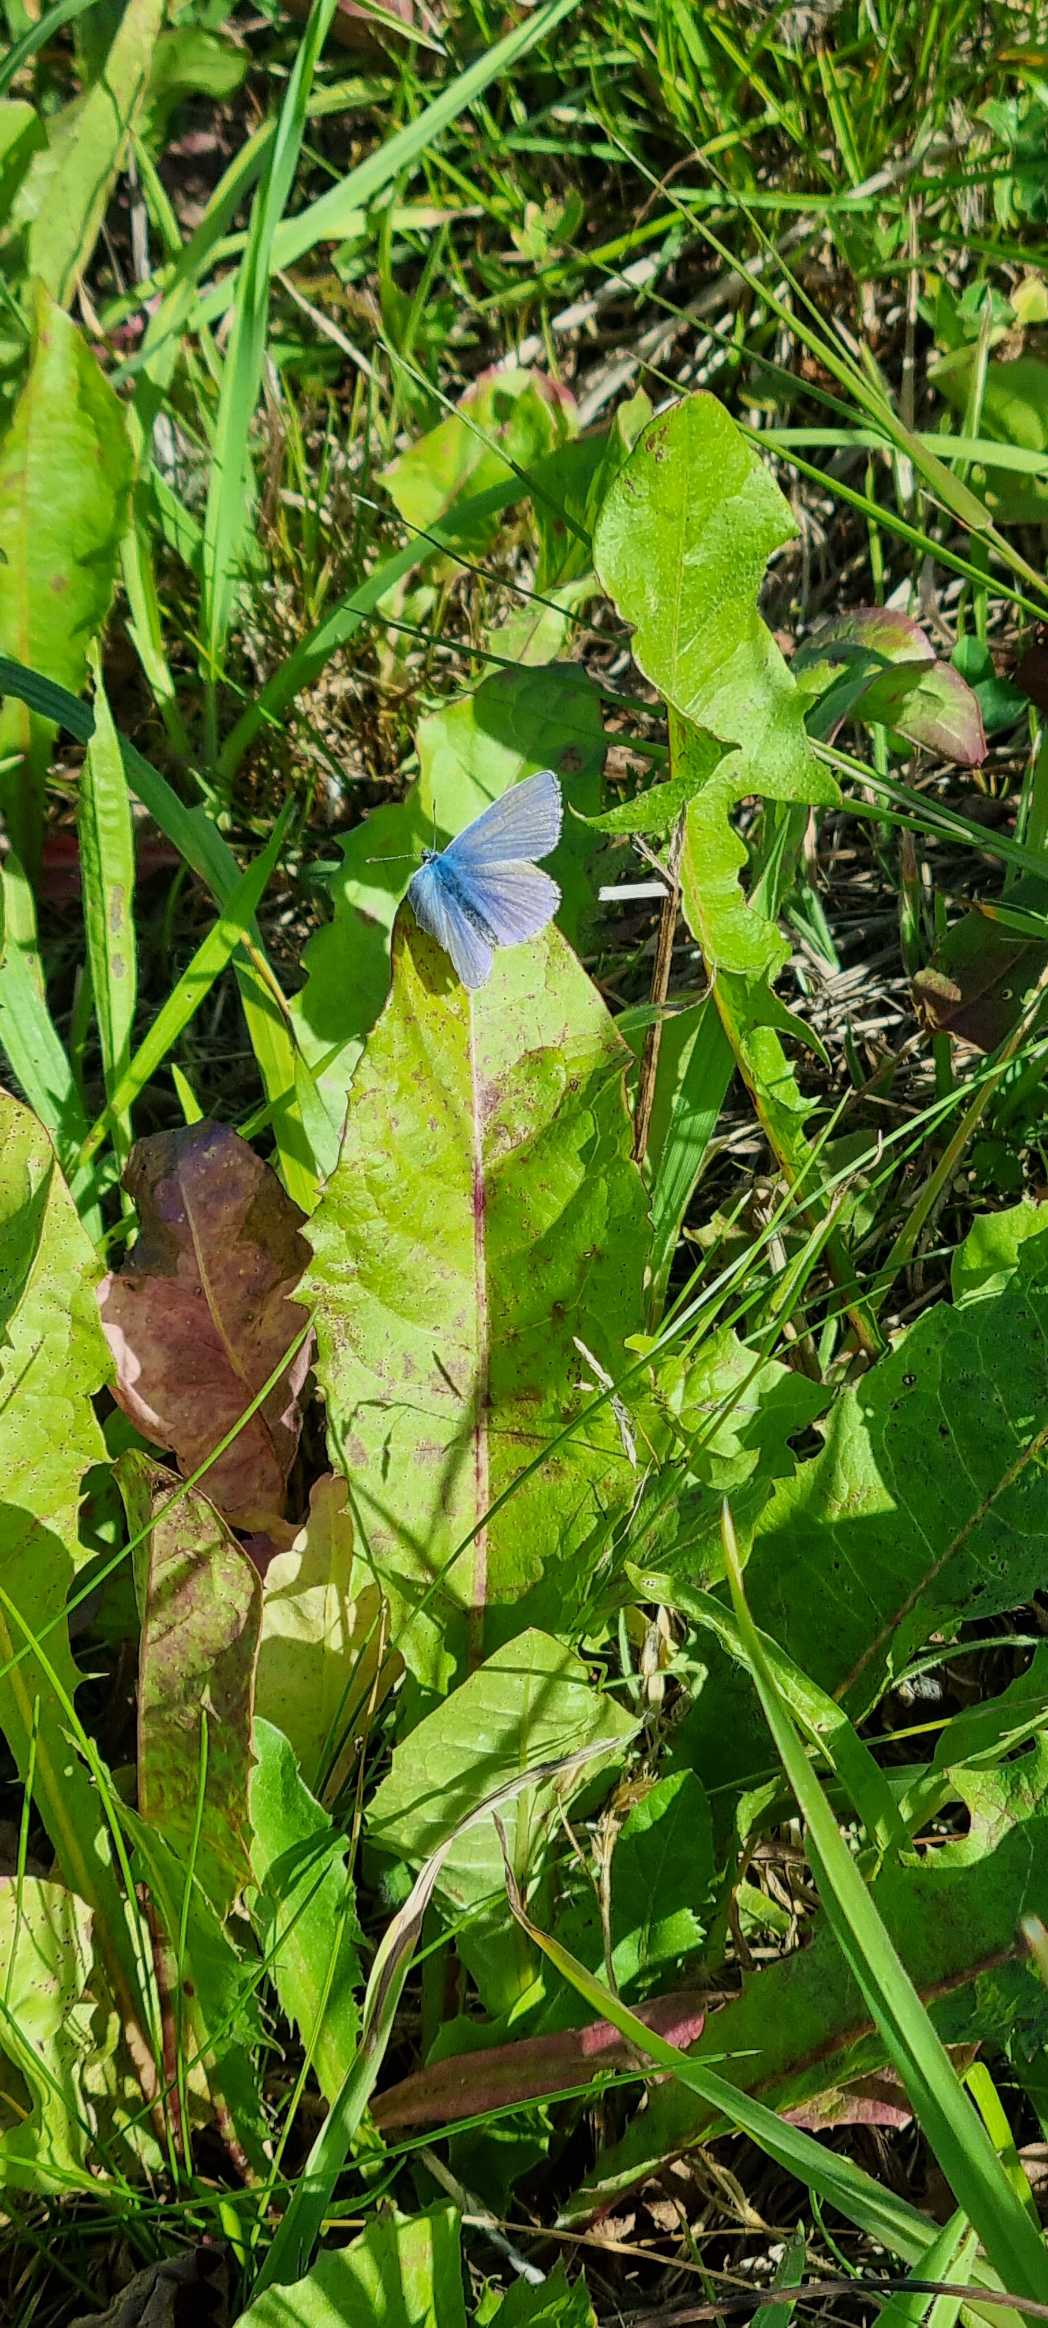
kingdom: Animalia
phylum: Arthropoda
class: Insecta
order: Lepidoptera
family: Lycaenidae
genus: Polyommatus
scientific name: Polyommatus icarus
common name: Almindelig blåfugl
